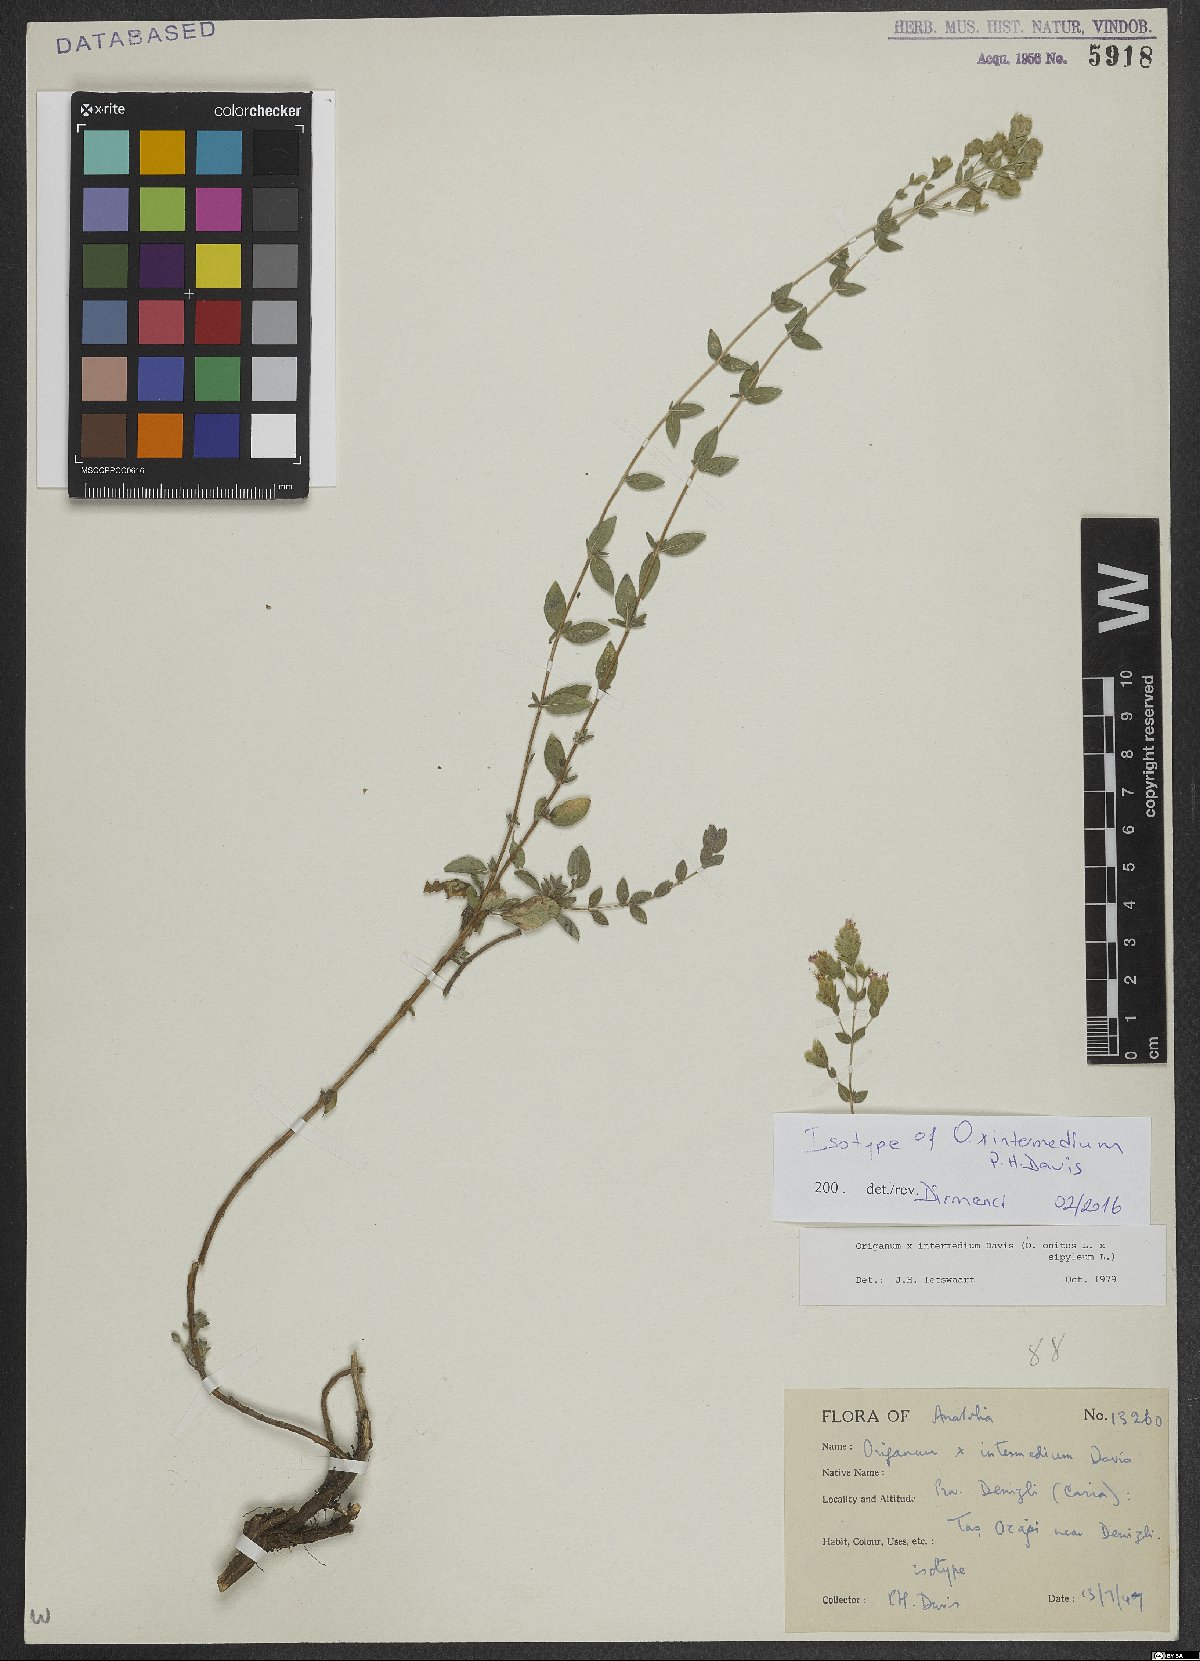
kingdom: Plantae
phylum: Tracheophyta
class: Magnoliopsida
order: Lamiales
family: Lamiaceae
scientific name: Lamiaceae
